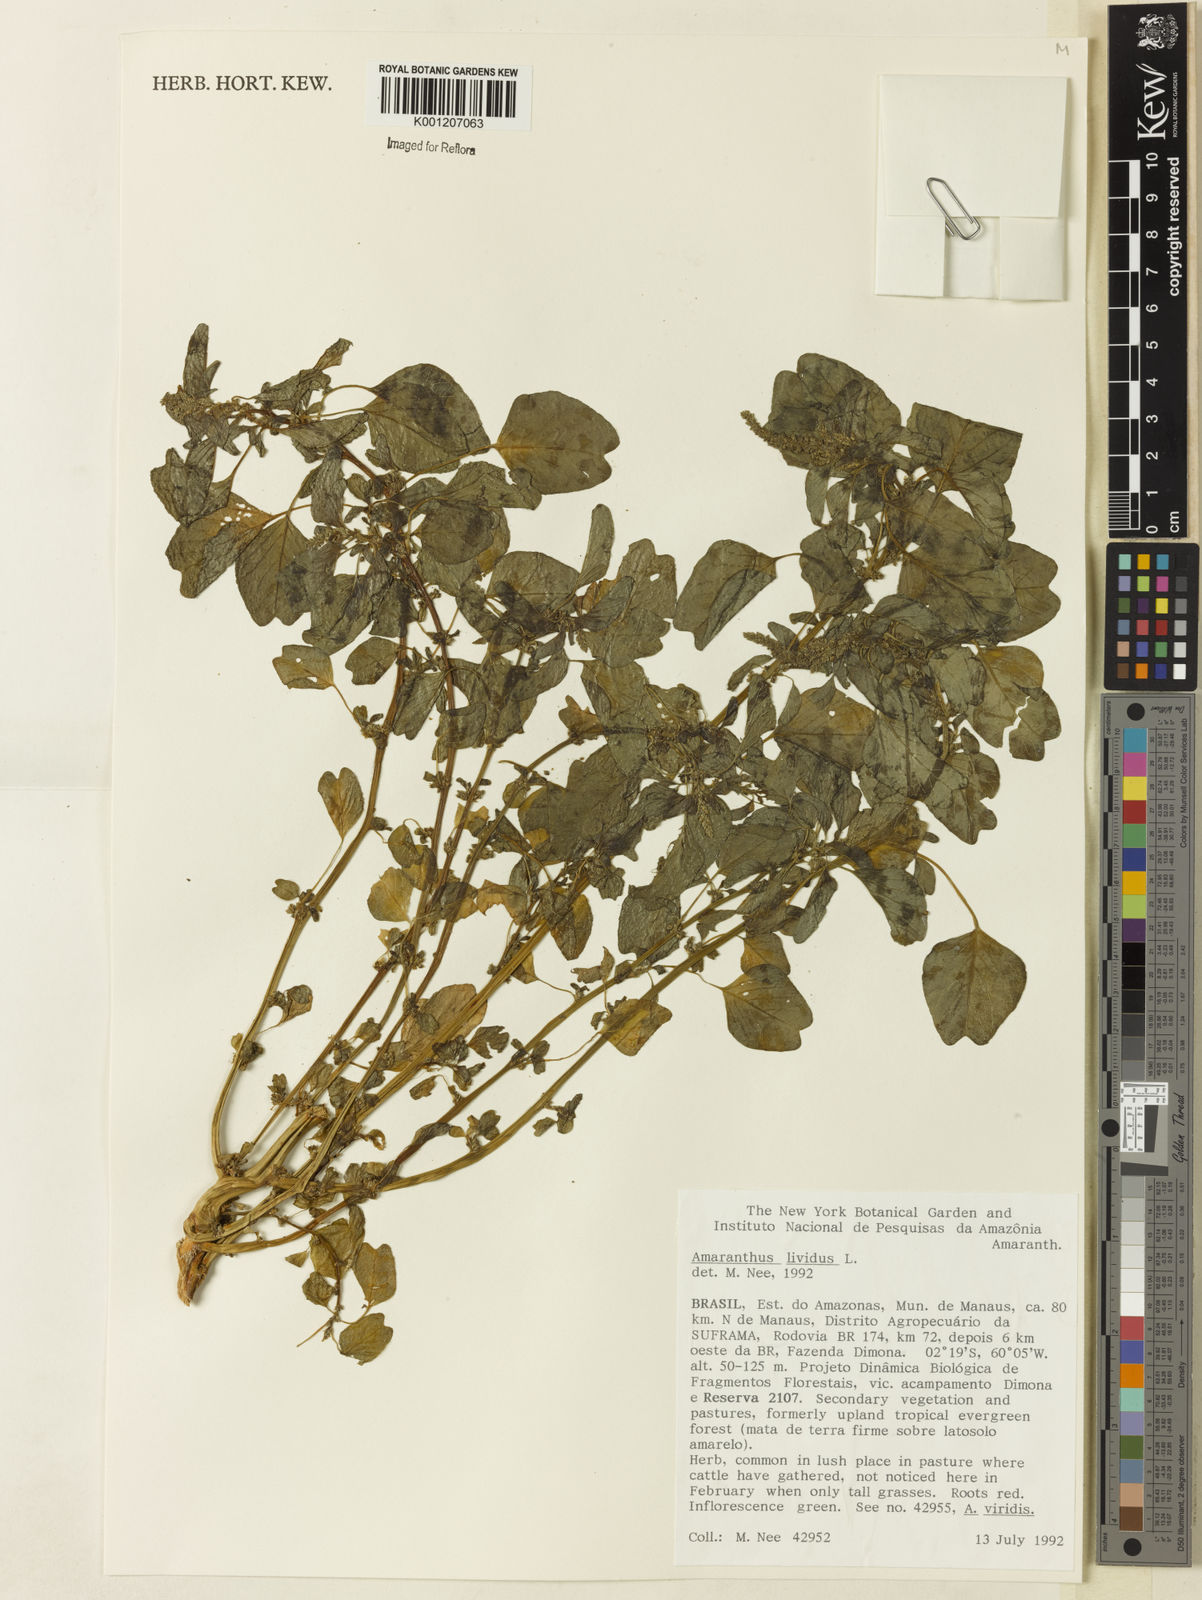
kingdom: Plantae
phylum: Tracheophyta
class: Magnoliopsida
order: Caryophyllales
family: Amaranthaceae
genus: Amaranthus
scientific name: Amaranthus blitum
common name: Purple amaranth
